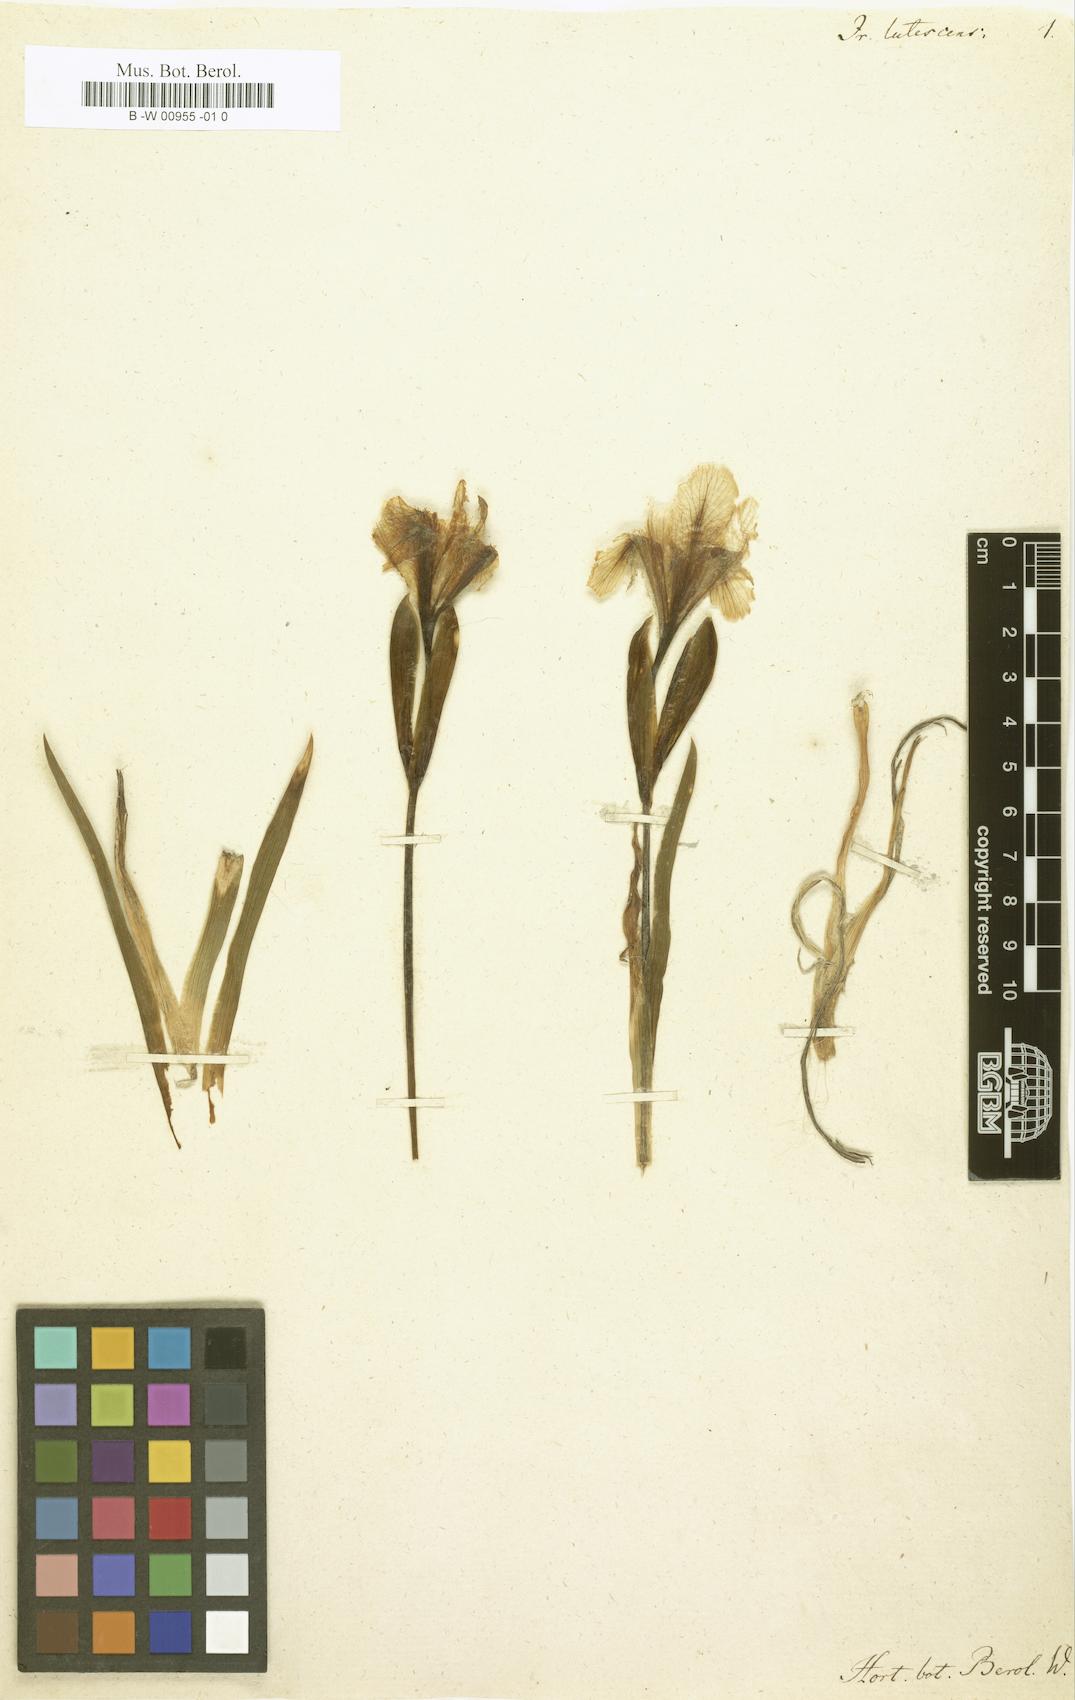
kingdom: Plantae
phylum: Tracheophyta
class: Liliopsida
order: Asparagales
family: Iridaceae
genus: Iris
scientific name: Iris lutescens
